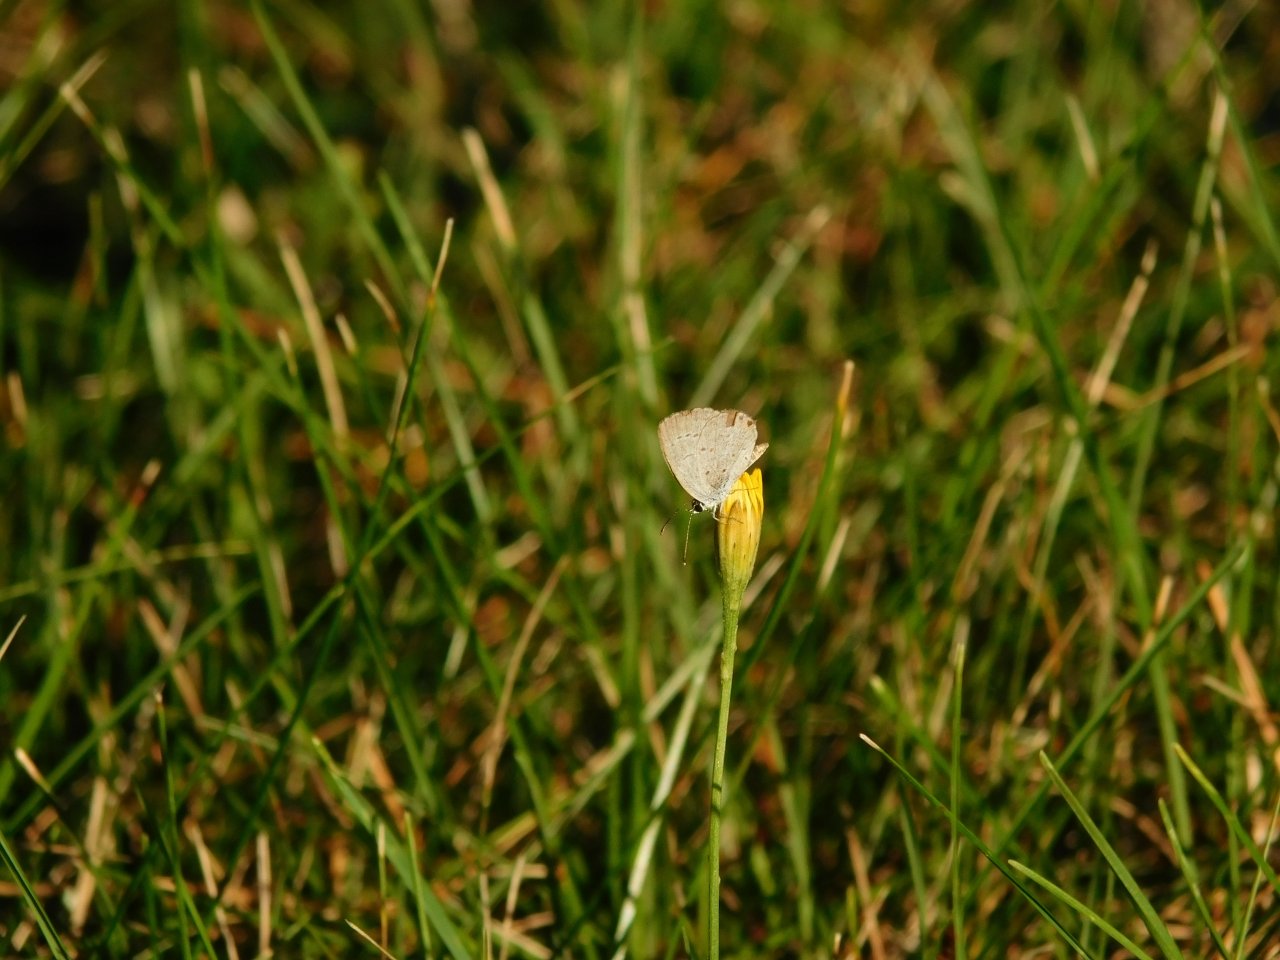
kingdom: Animalia
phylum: Arthropoda
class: Insecta
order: Lepidoptera
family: Lycaenidae
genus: Elkalyce
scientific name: Elkalyce comyntas
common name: Eastern Tailed-Blue
